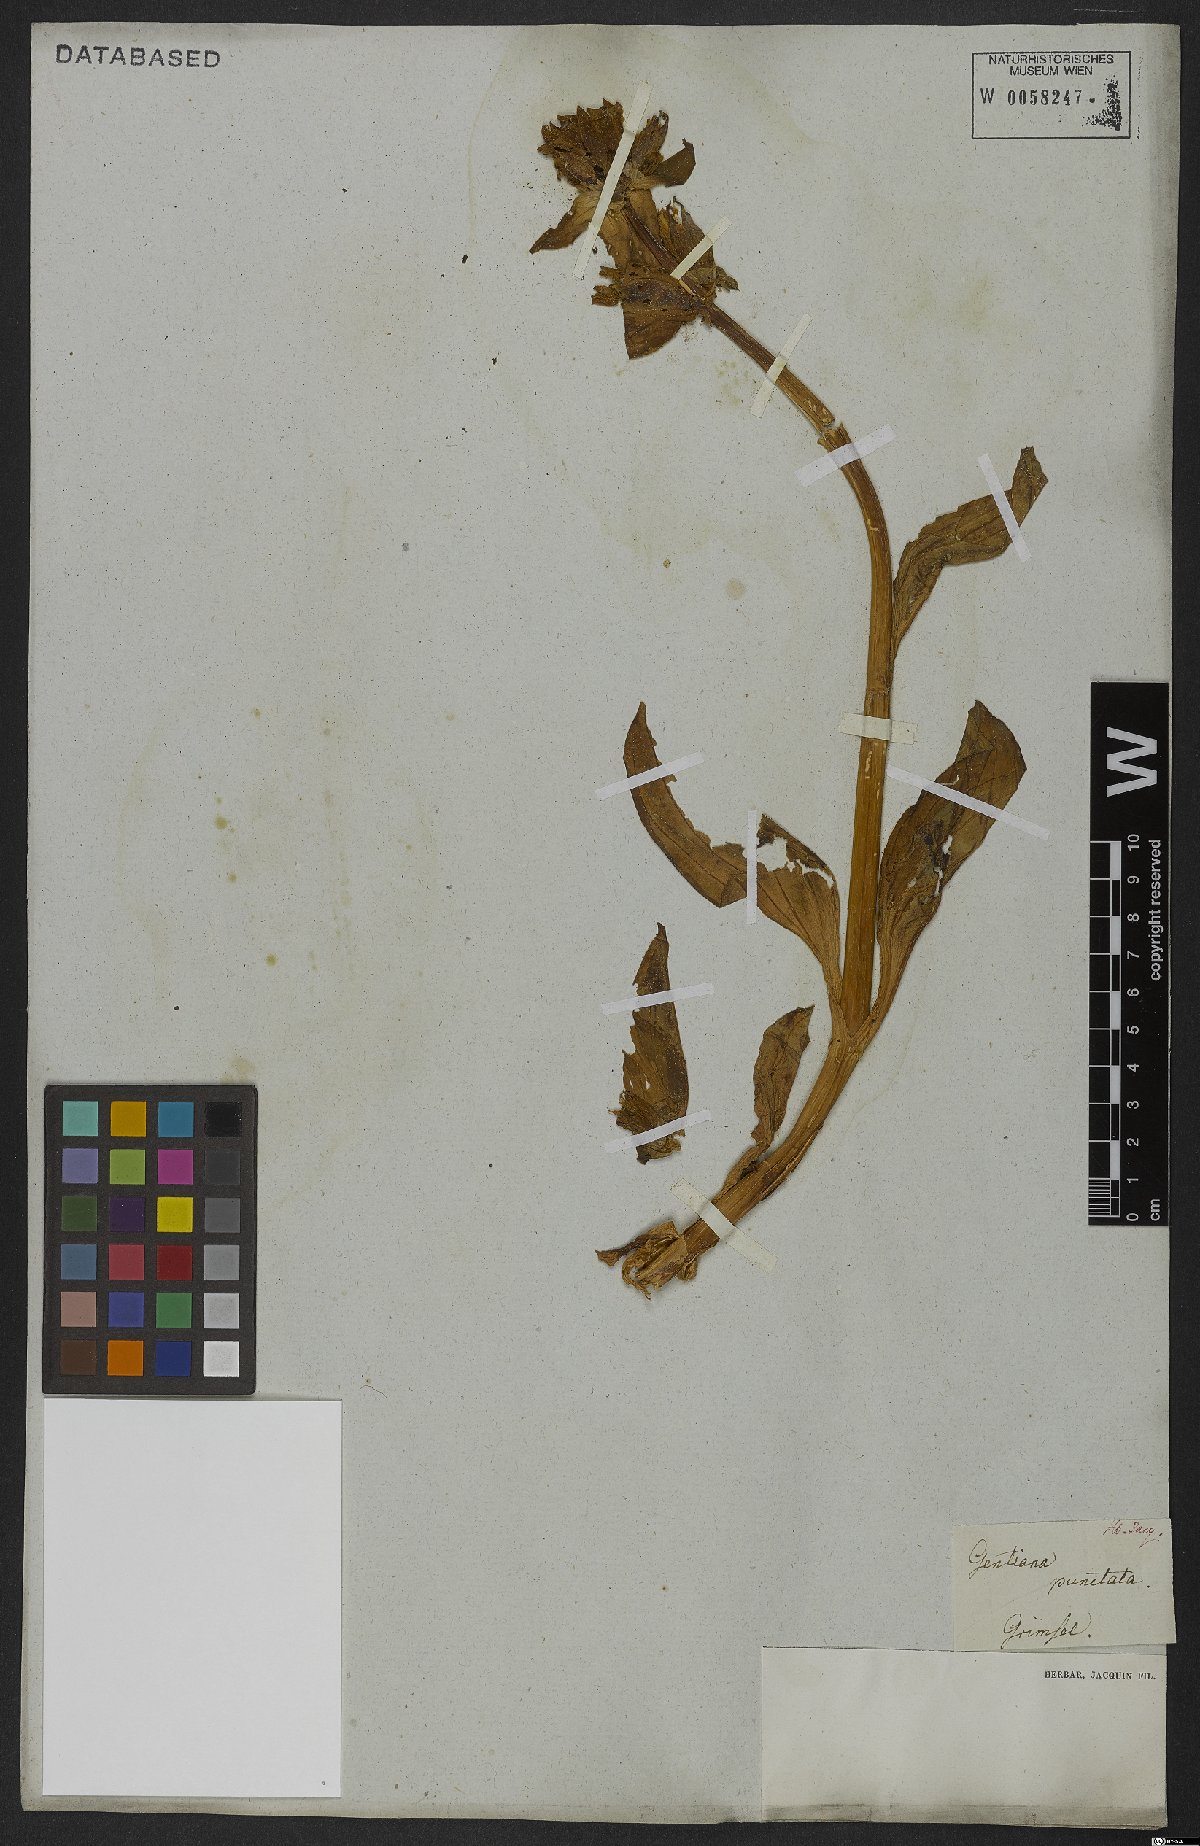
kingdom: Plantae
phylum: Tracheophyta
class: Magnoliopsida
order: Gentianales
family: Gentianaceae
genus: Gentiana
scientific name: Gentiana punctata
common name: Spotted gentian
